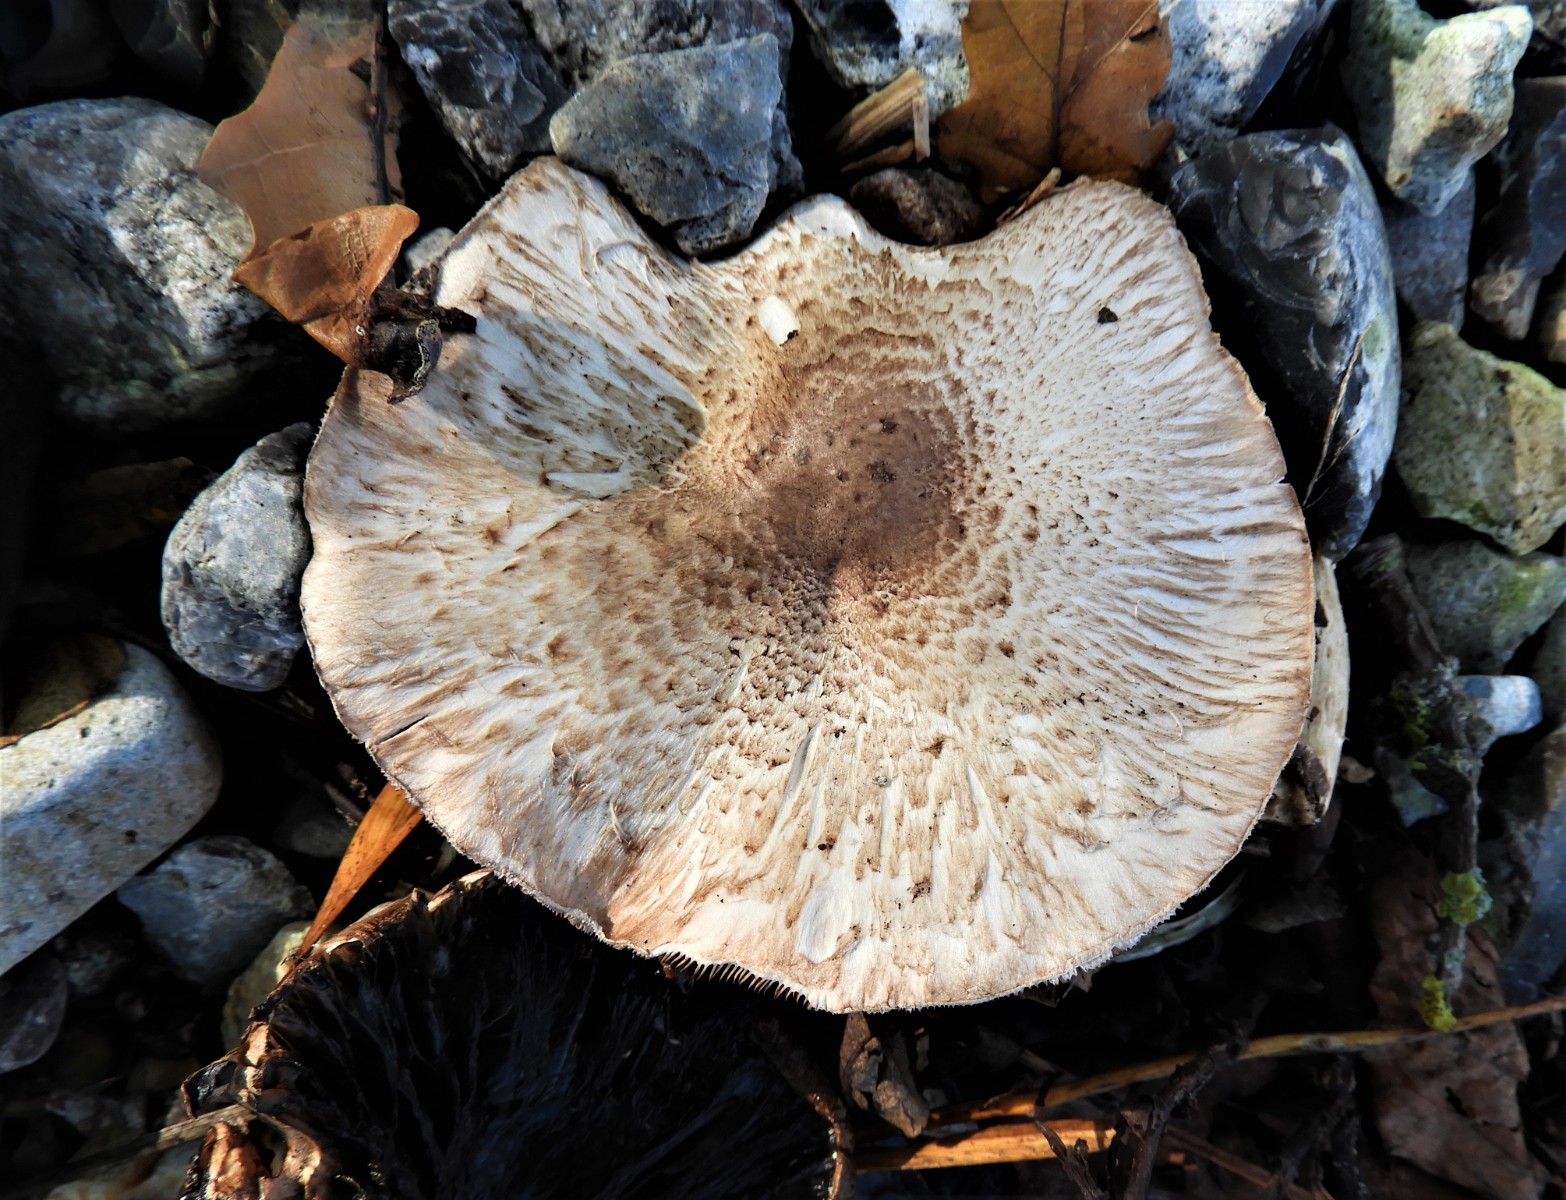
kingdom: Fungi
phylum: Basidiomycota
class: Agaricomycetes
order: Agaricales
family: Agaricaceae
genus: Agaricus
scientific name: Agaricus augustus
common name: prægtig champignon
